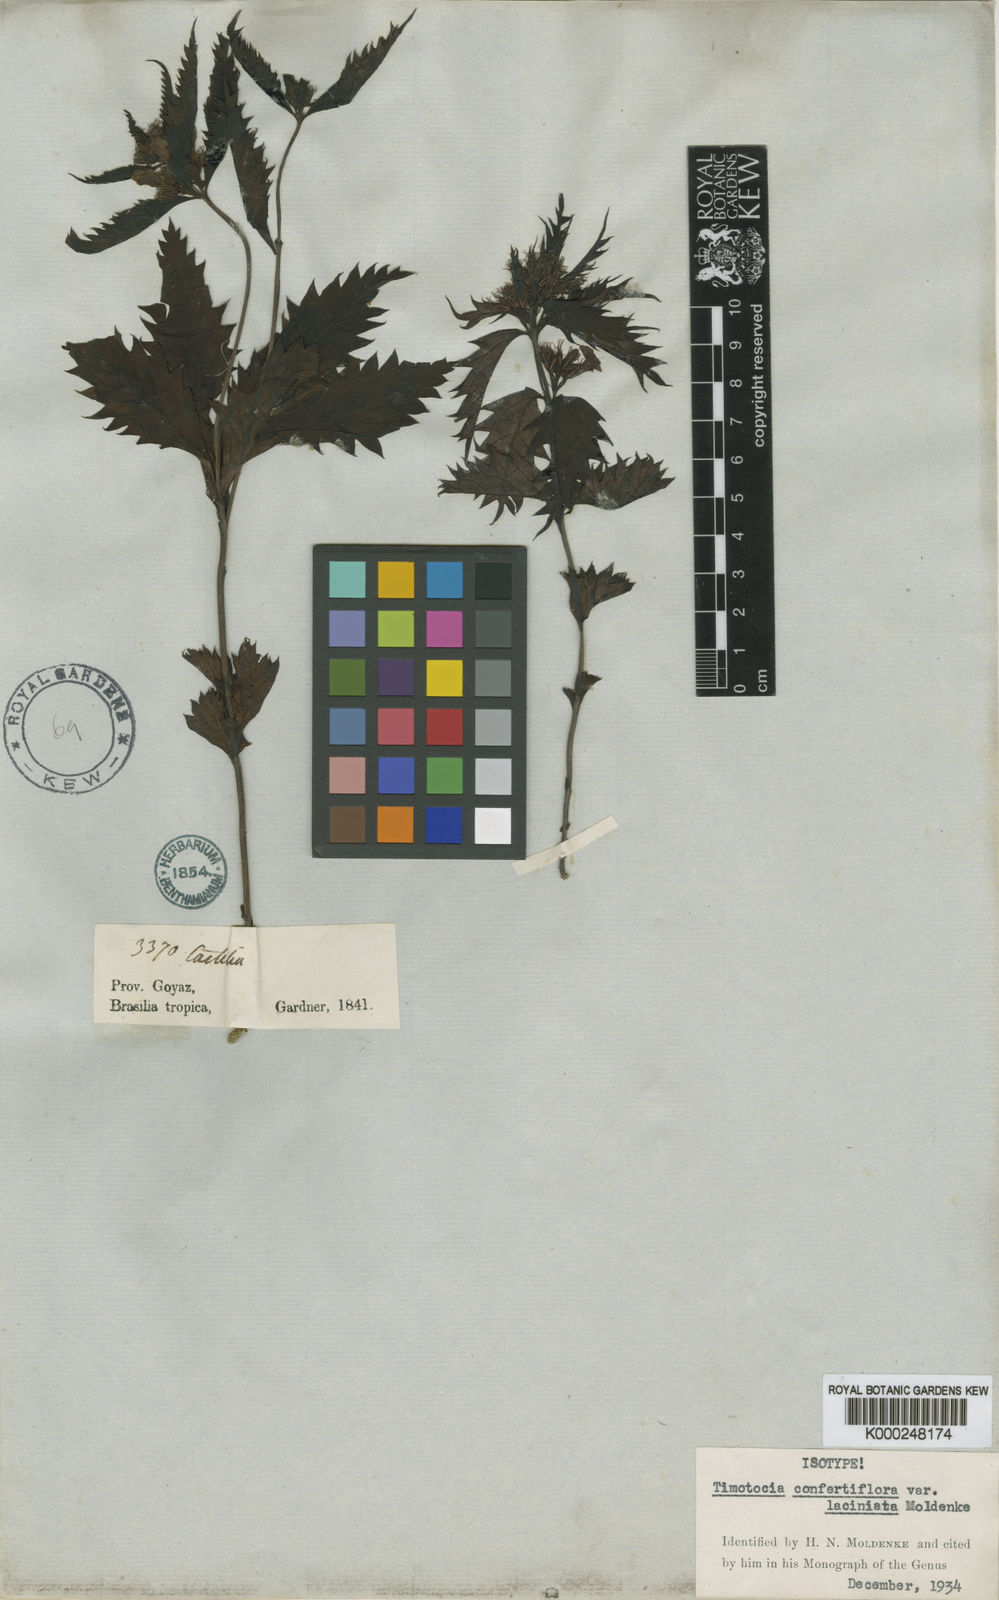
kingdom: Plantae
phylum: Tracheophyta
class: Magnoliopsida
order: Lamiales
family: Verbenaceae
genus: Casselia
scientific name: Casselia confertiflora
